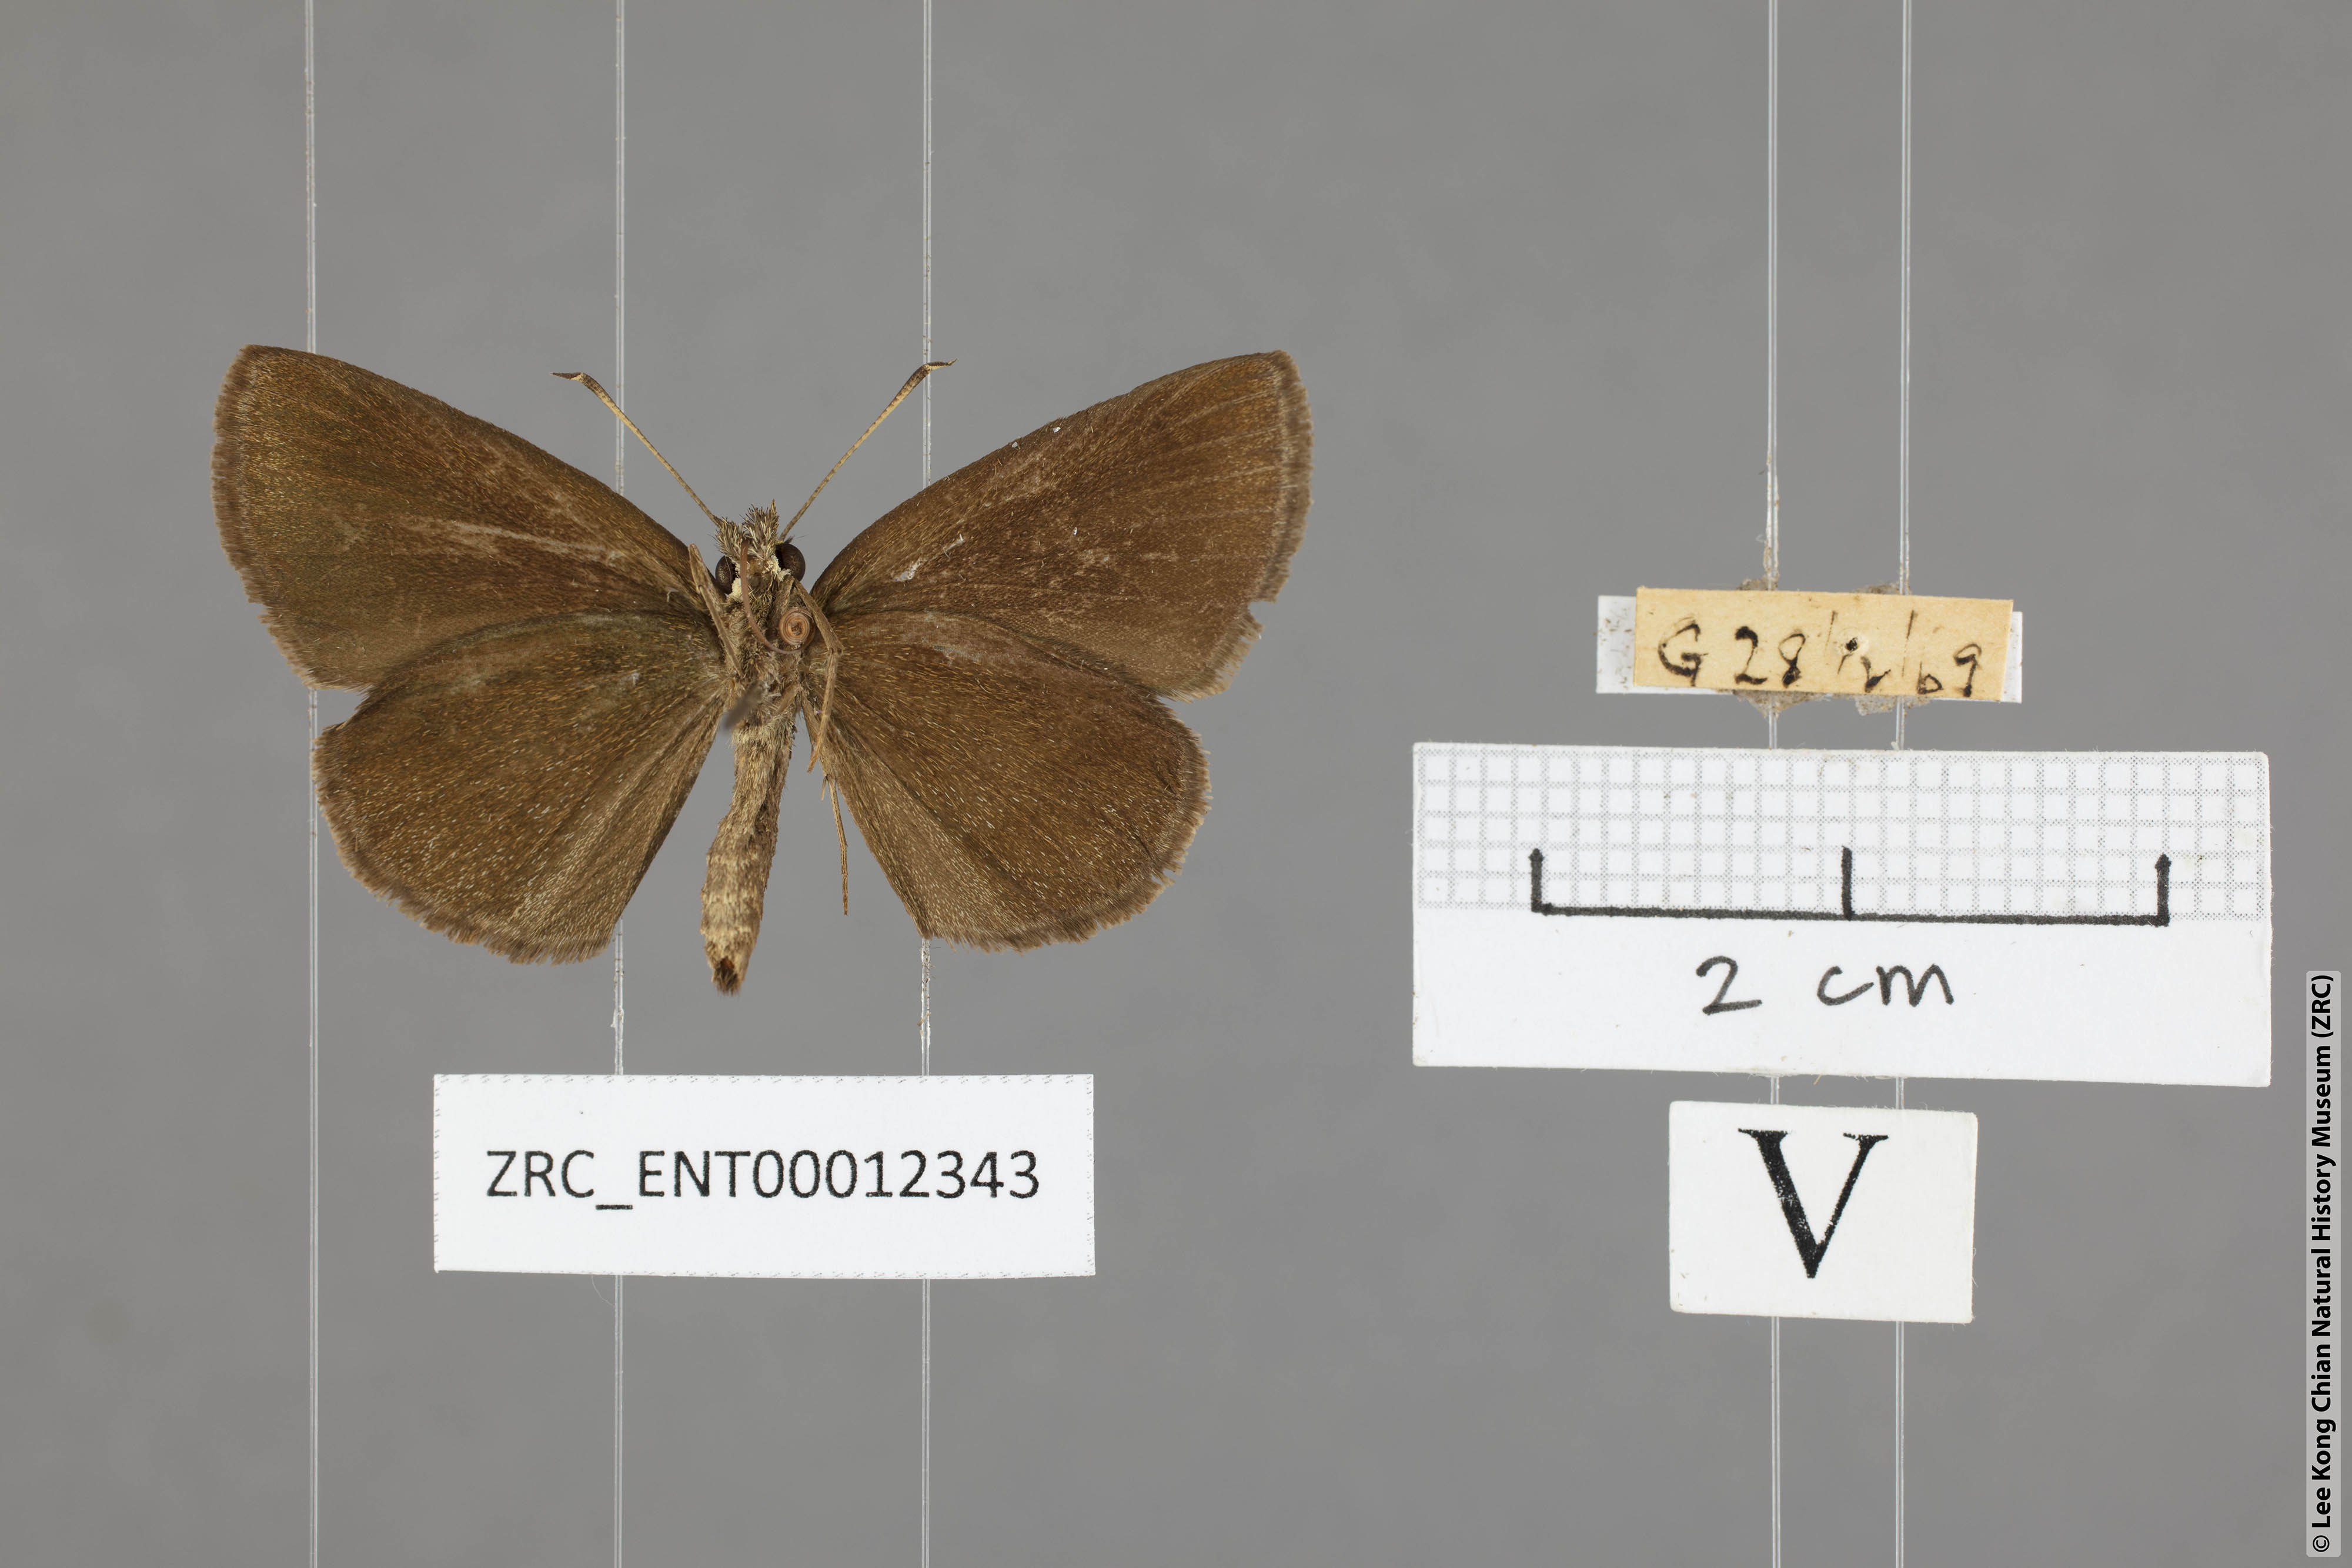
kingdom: Animalia
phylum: Arthropoda
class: Insecta
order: Lepidoptera
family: Hesperiidae
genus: Astictopterus
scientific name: Astictopterus jama
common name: Forest hopper
